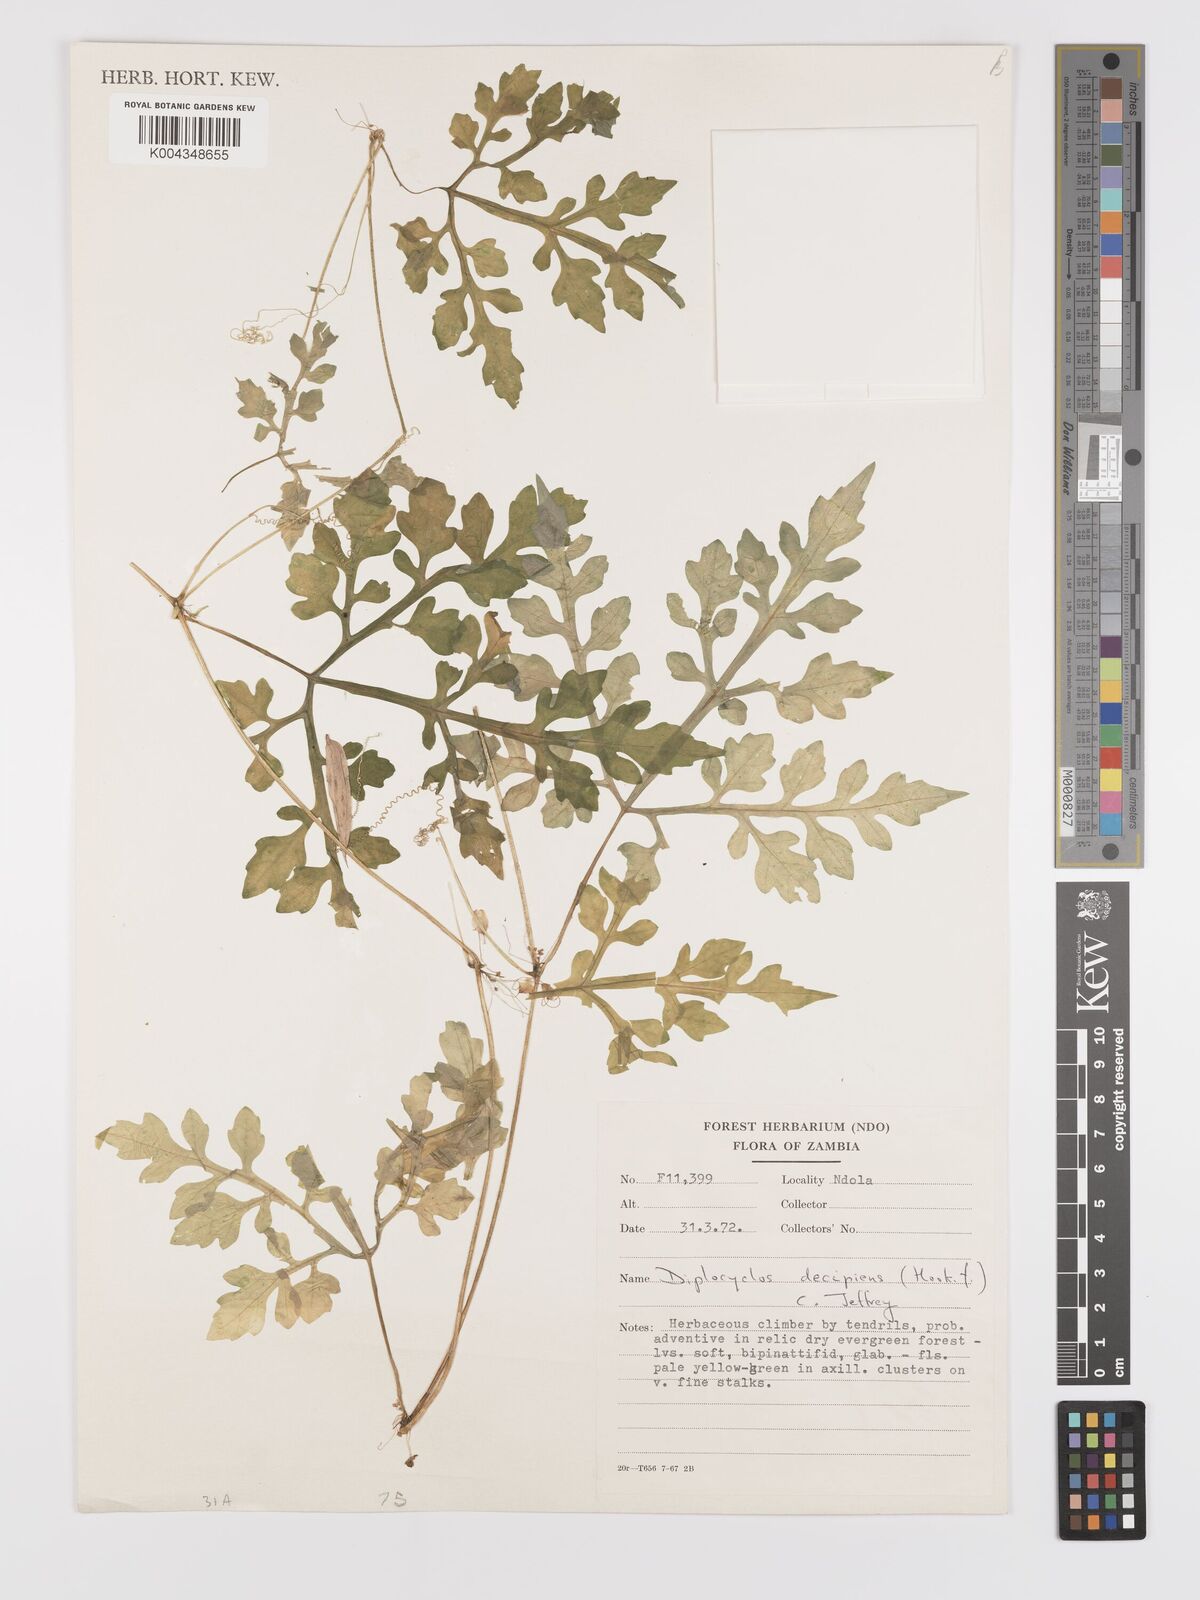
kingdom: Plantae
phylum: Tracheophyta
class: Magnoliopsida
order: Cucurbitales
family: Cucurbitaceae
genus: Diplocyclos
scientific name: Diplocyclos decipiens
